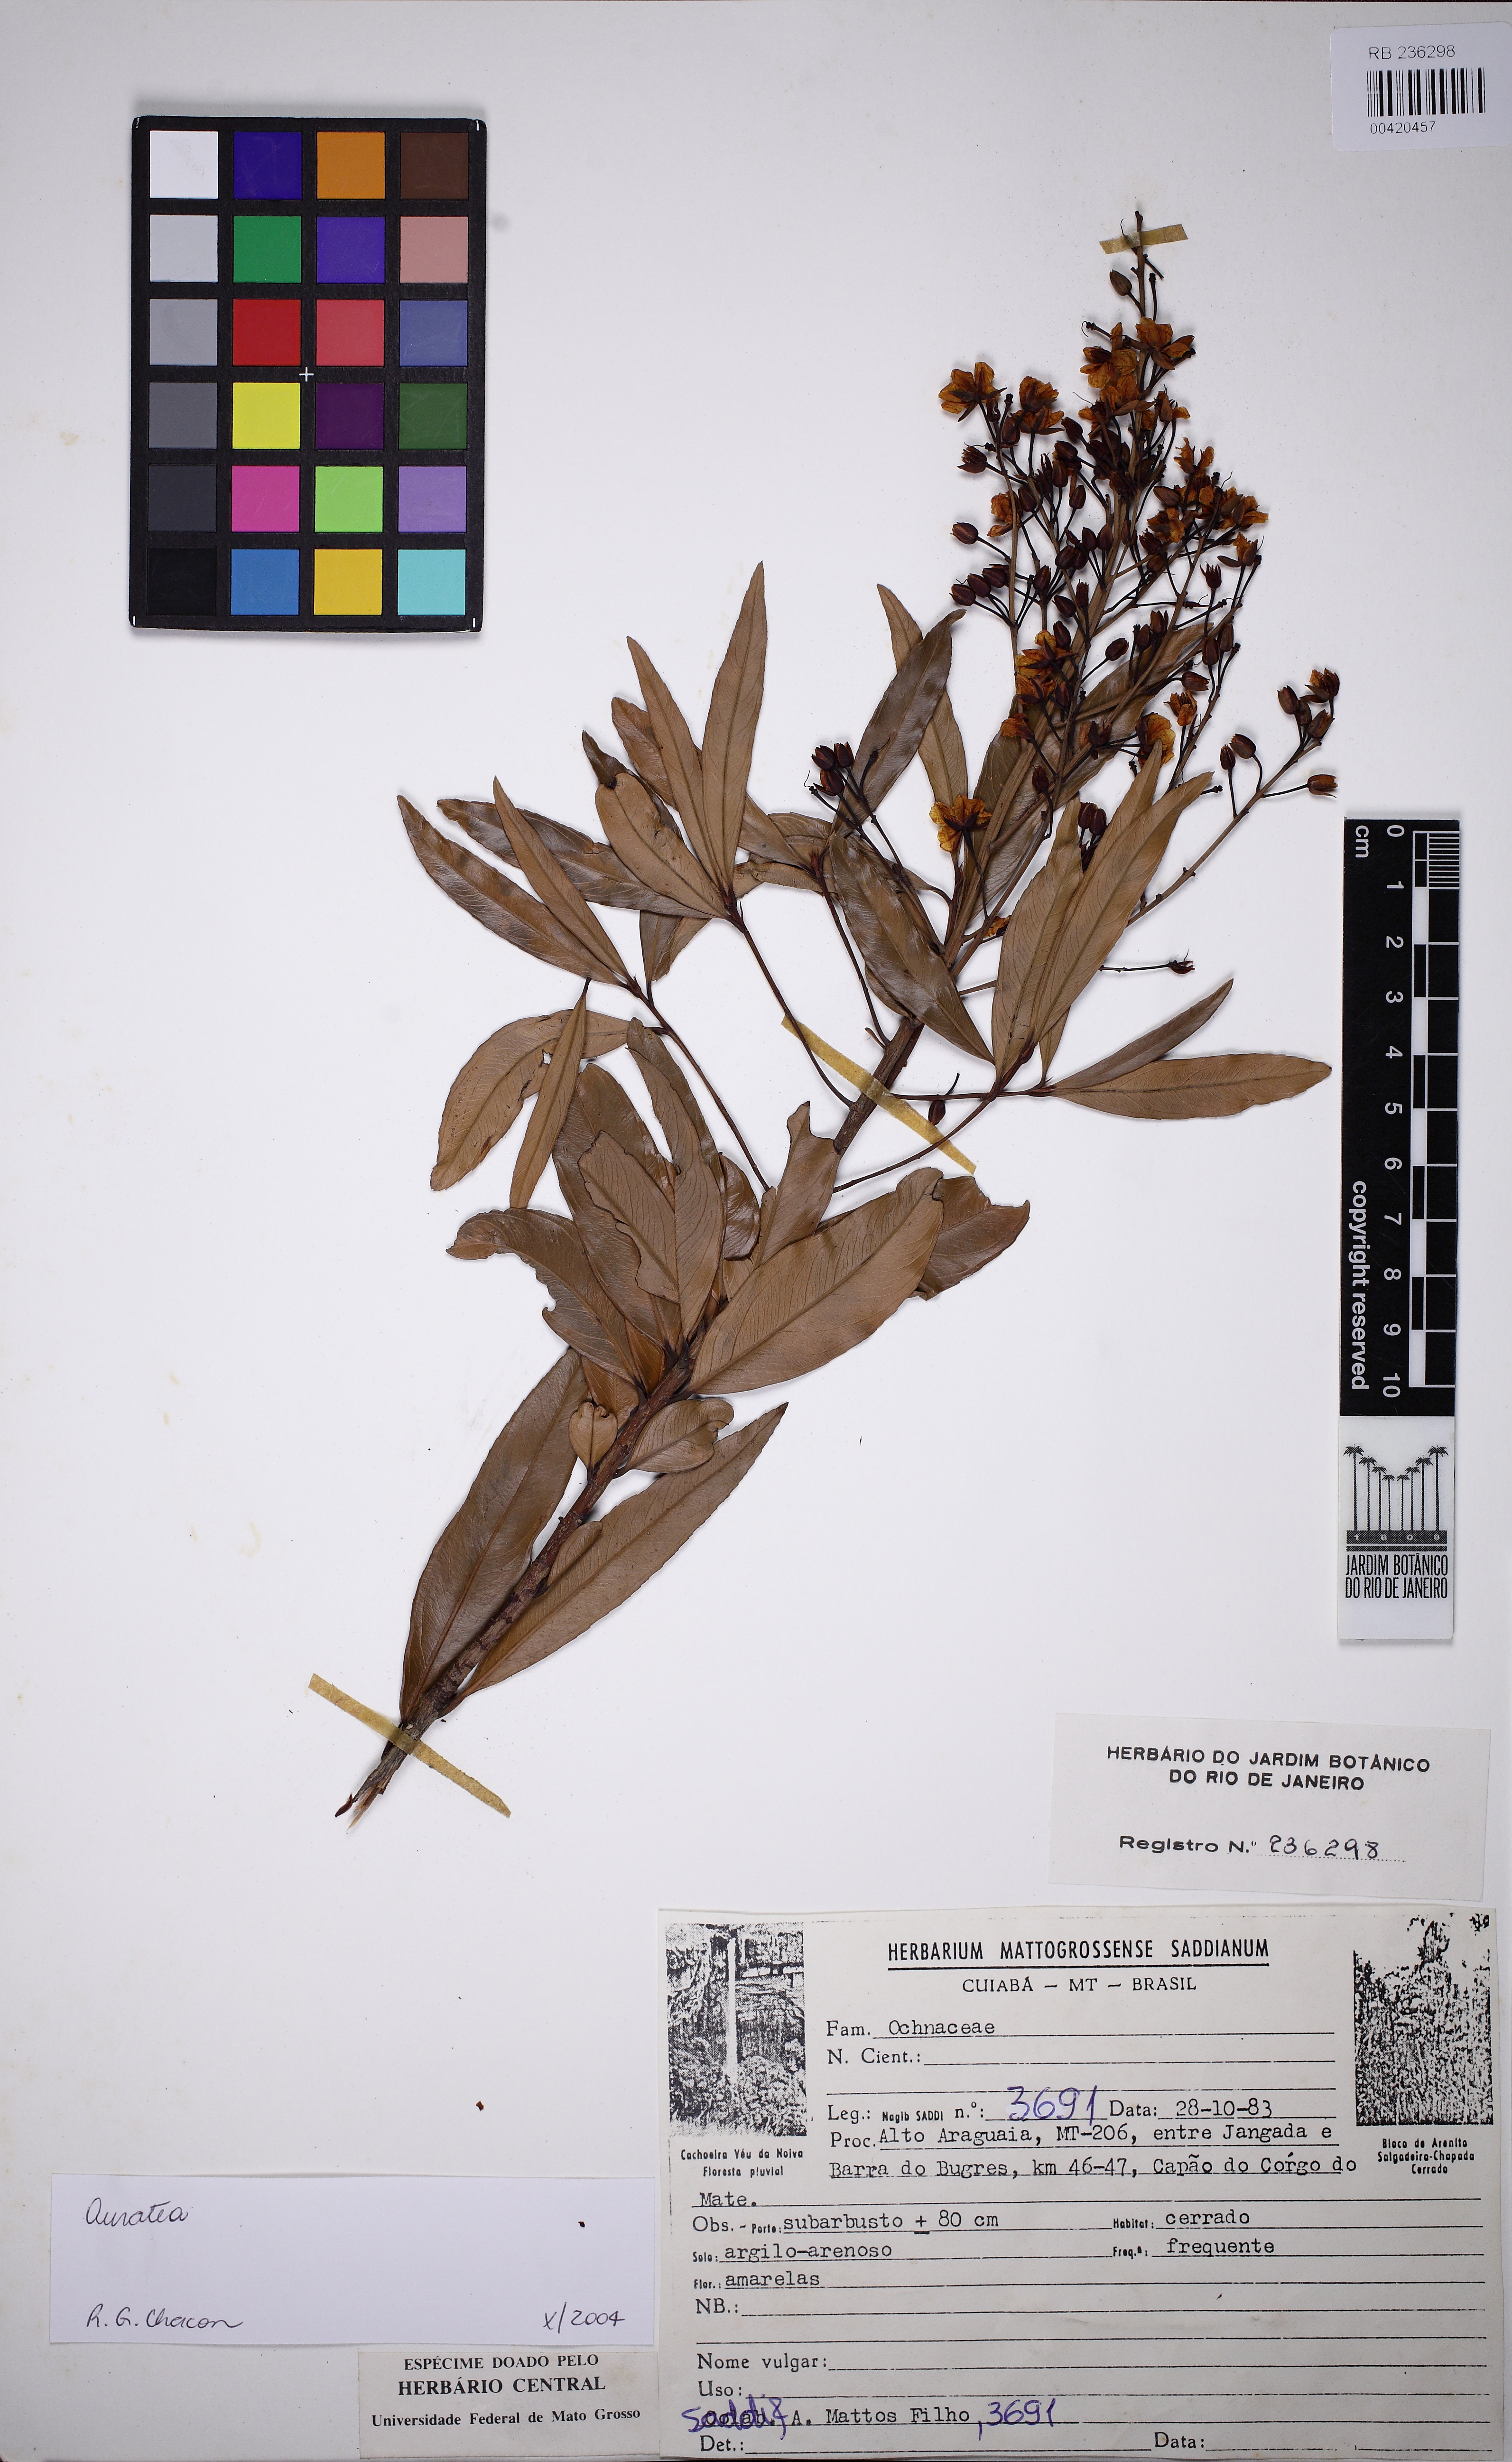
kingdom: Plantae
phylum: Tracheophyta
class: Magnoliopsida
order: Malpighiales
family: Ochnaceae
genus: Ouratea
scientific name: Ouratea
